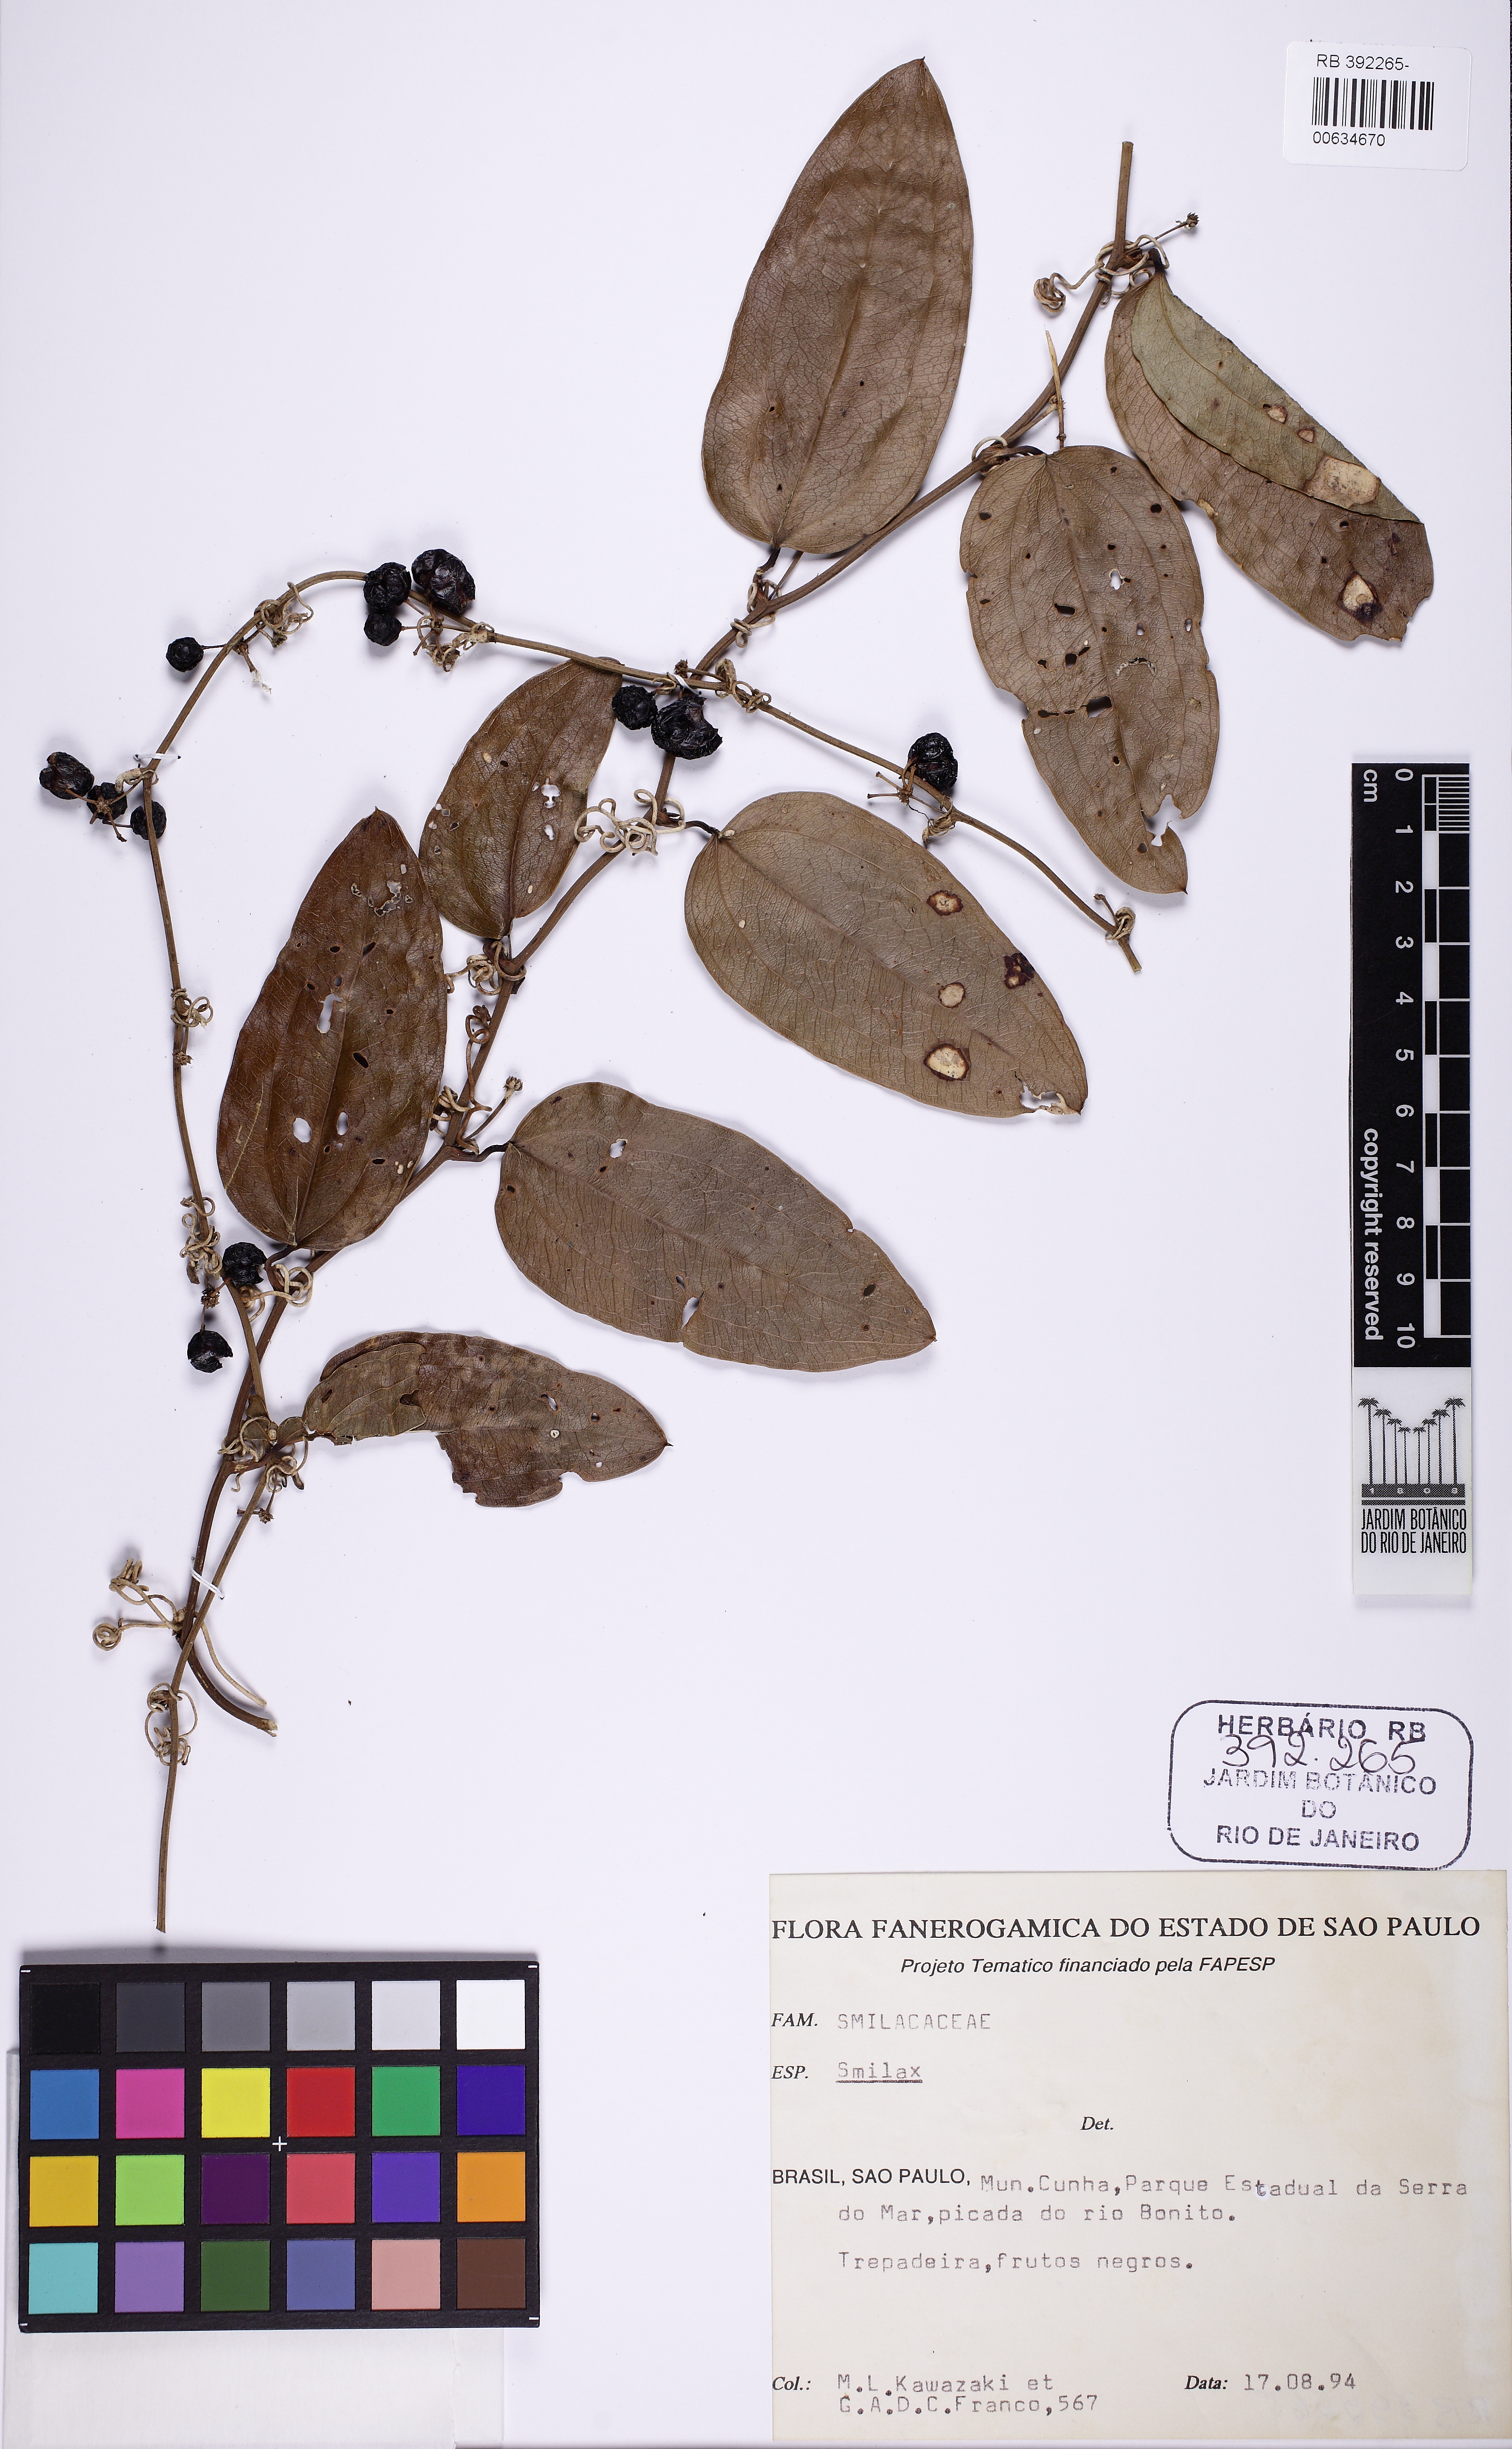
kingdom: Plantae
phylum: Tracheophyta
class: Liliopsida
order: Liliales
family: Smilacaceae
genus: Smilax
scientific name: Smilax
